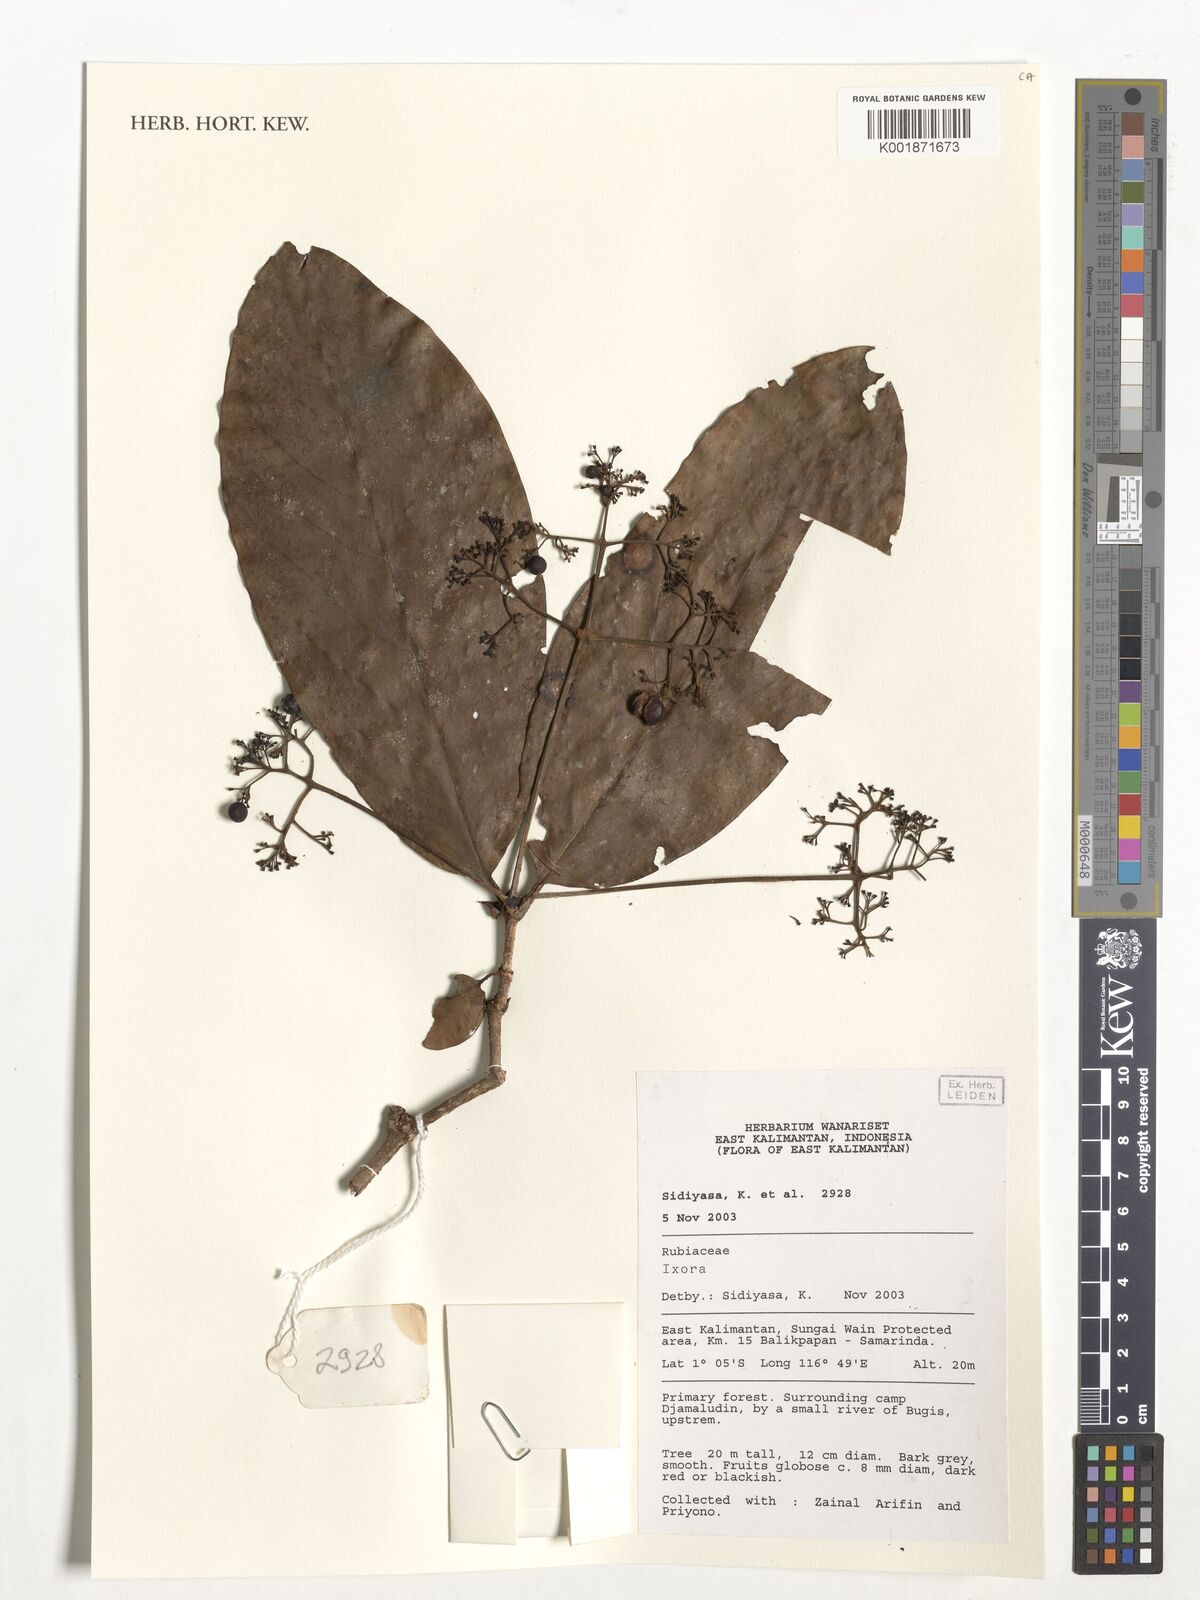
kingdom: Plantae
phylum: Tracheophyta
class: Magnoliopsida
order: Gentianales
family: Rubiaceae
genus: Ixora
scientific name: Ixora
